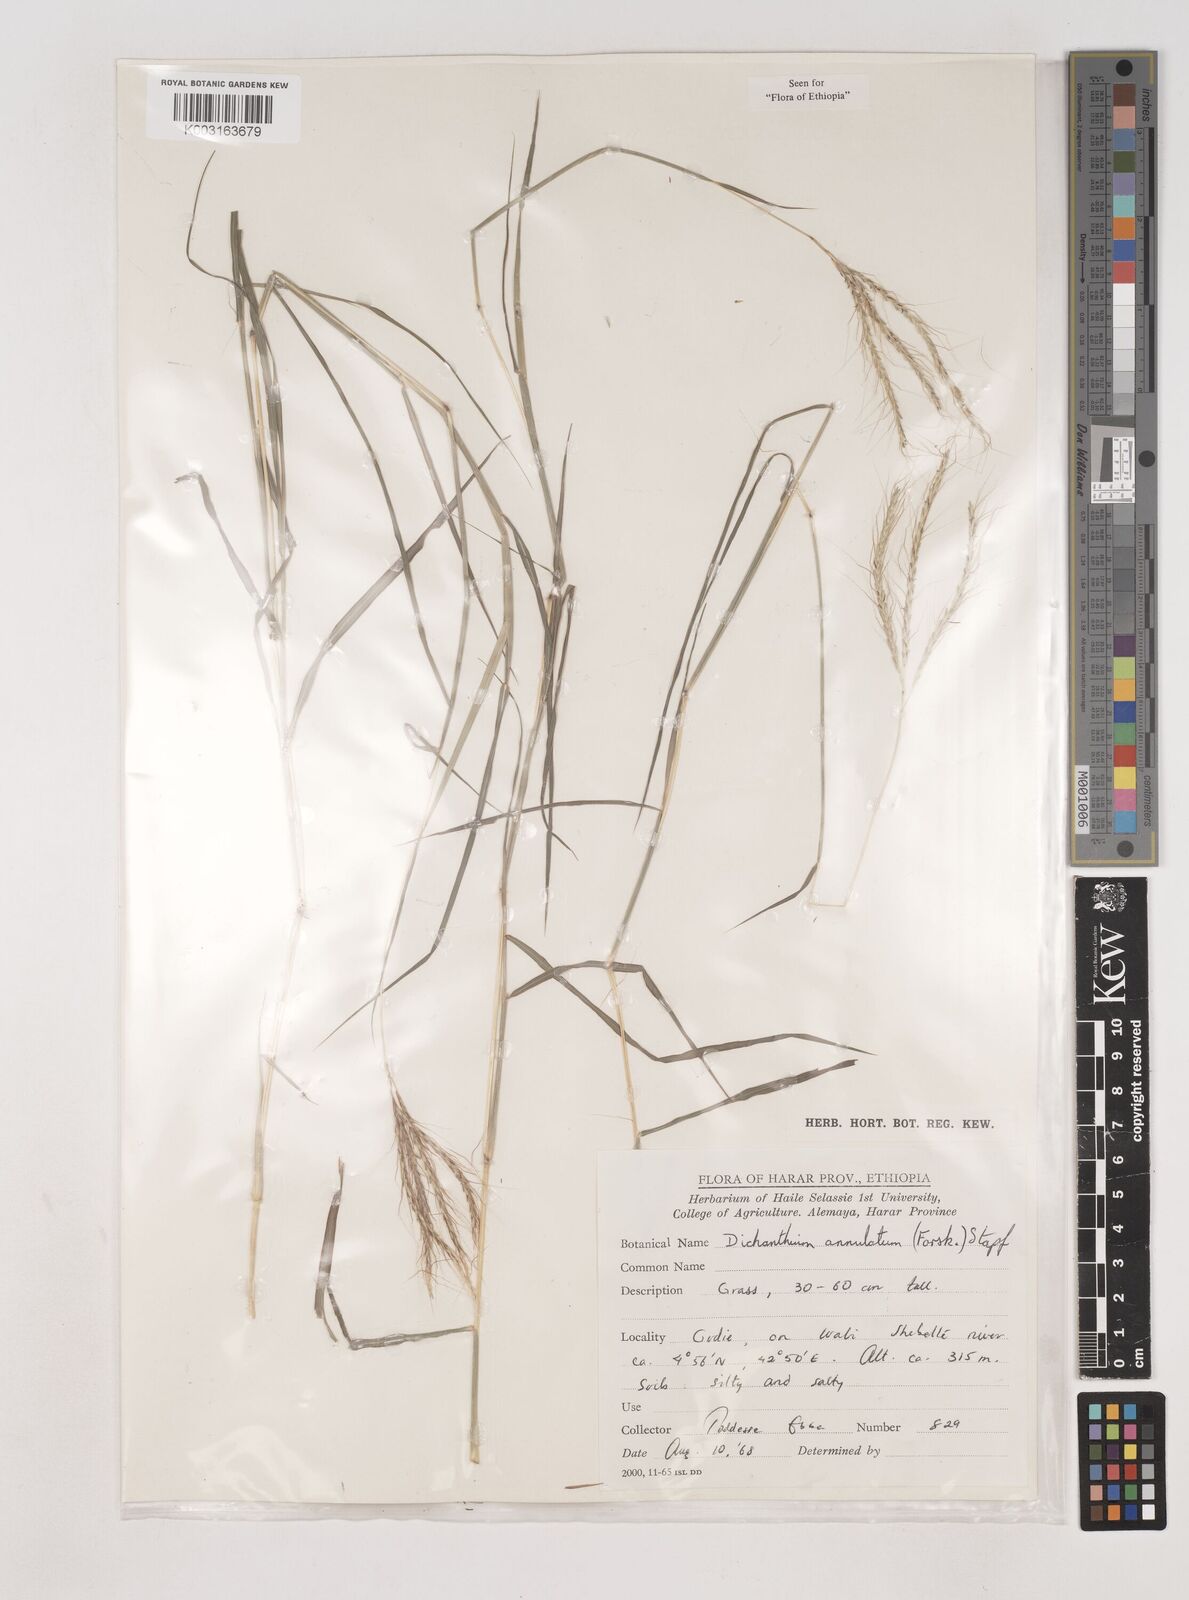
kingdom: Plantae
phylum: Tracheophyta
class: Liliopsida
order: Poales
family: Poaceae
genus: Dichanthium
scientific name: Dichanthium annulatum
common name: Kleberg's bluestem
